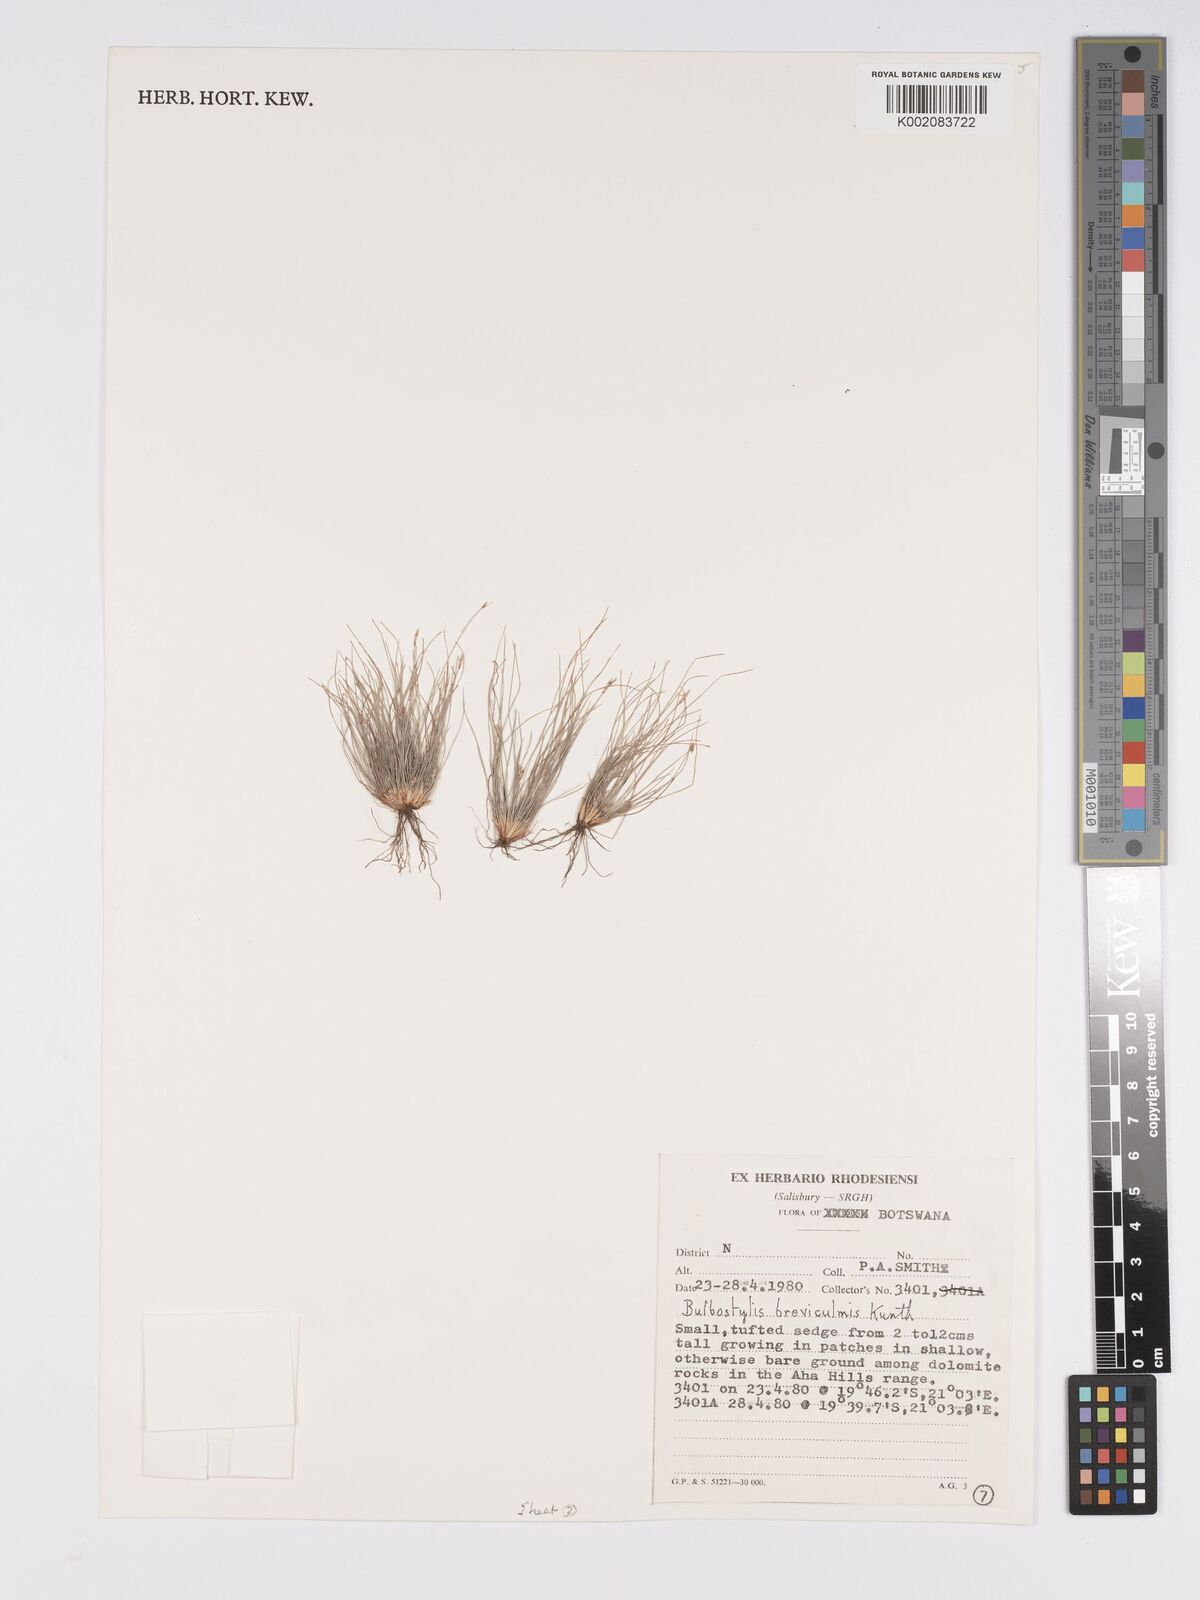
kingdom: Plantae
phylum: Tracheophyta
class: Liliopsida
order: Poales
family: Cyperaceae
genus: Bulbostylis
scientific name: Bulbostylis humilis
